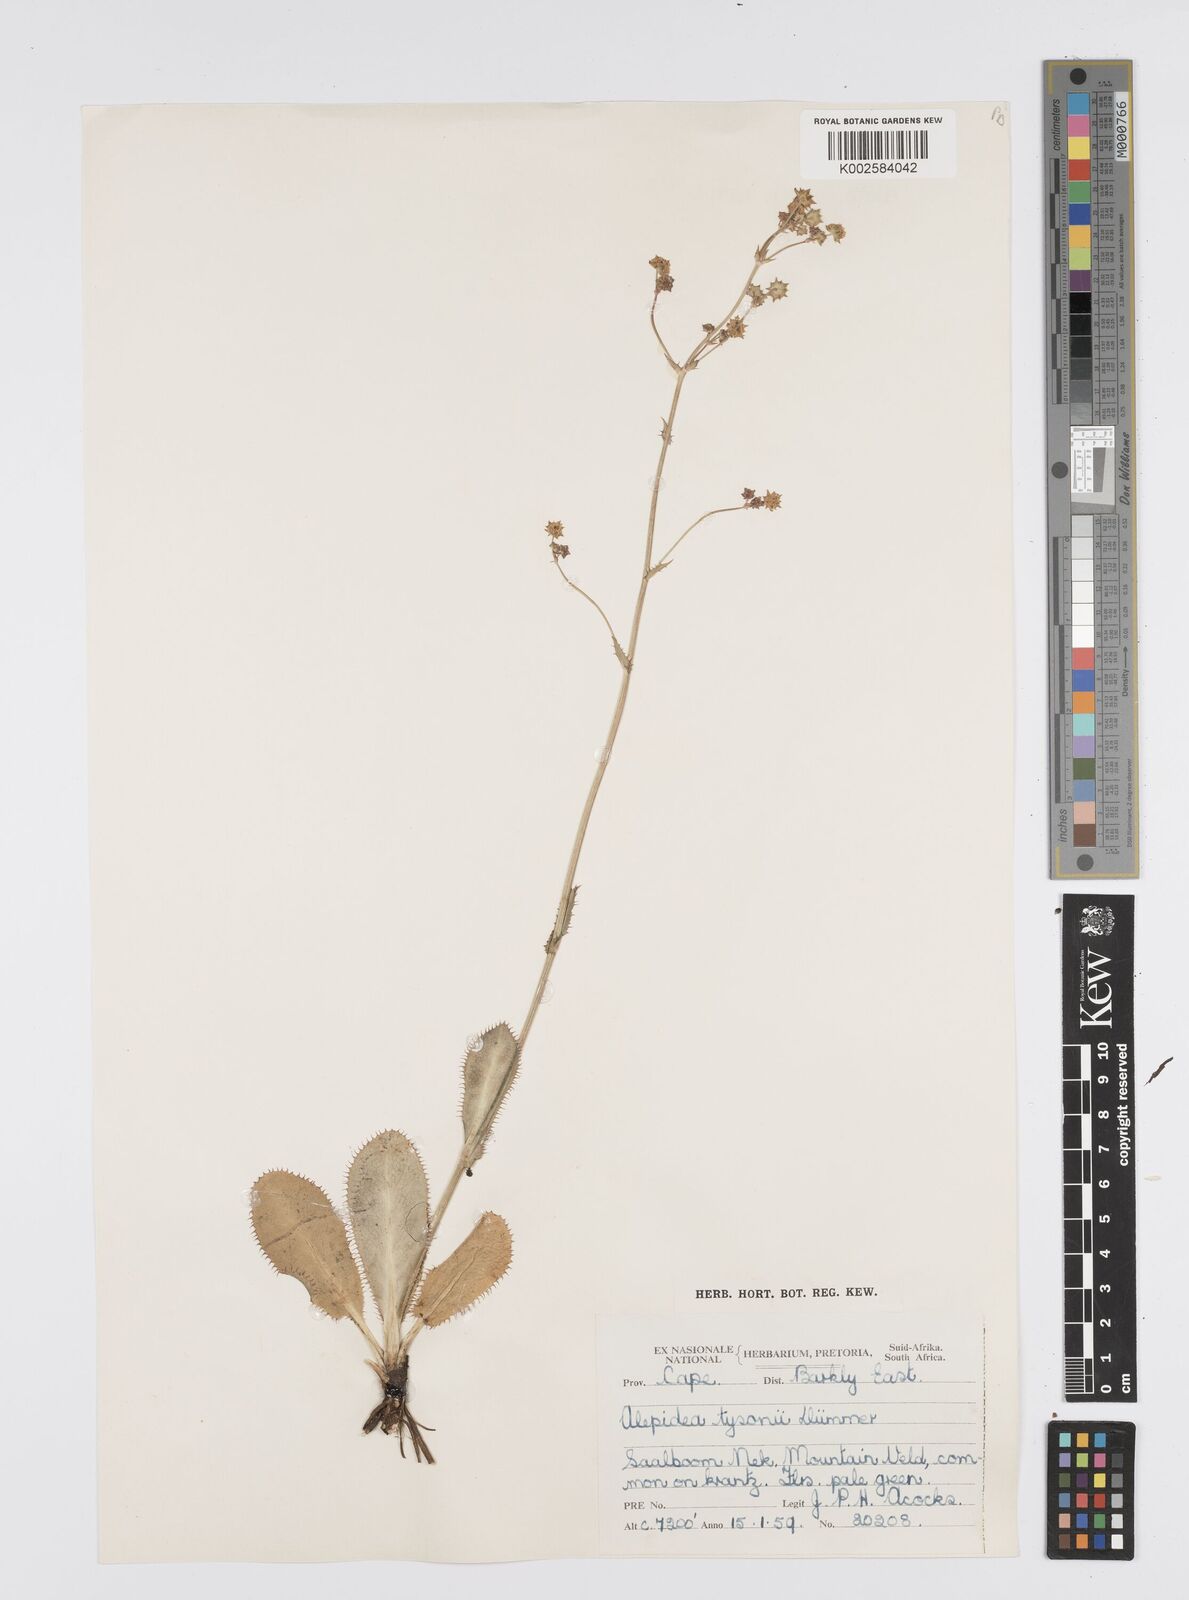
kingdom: Plantae
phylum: Tracheophyta
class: Magnoliopsida
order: Apiales
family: Apiaceae
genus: Alepidea
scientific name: Alepidea woodii
